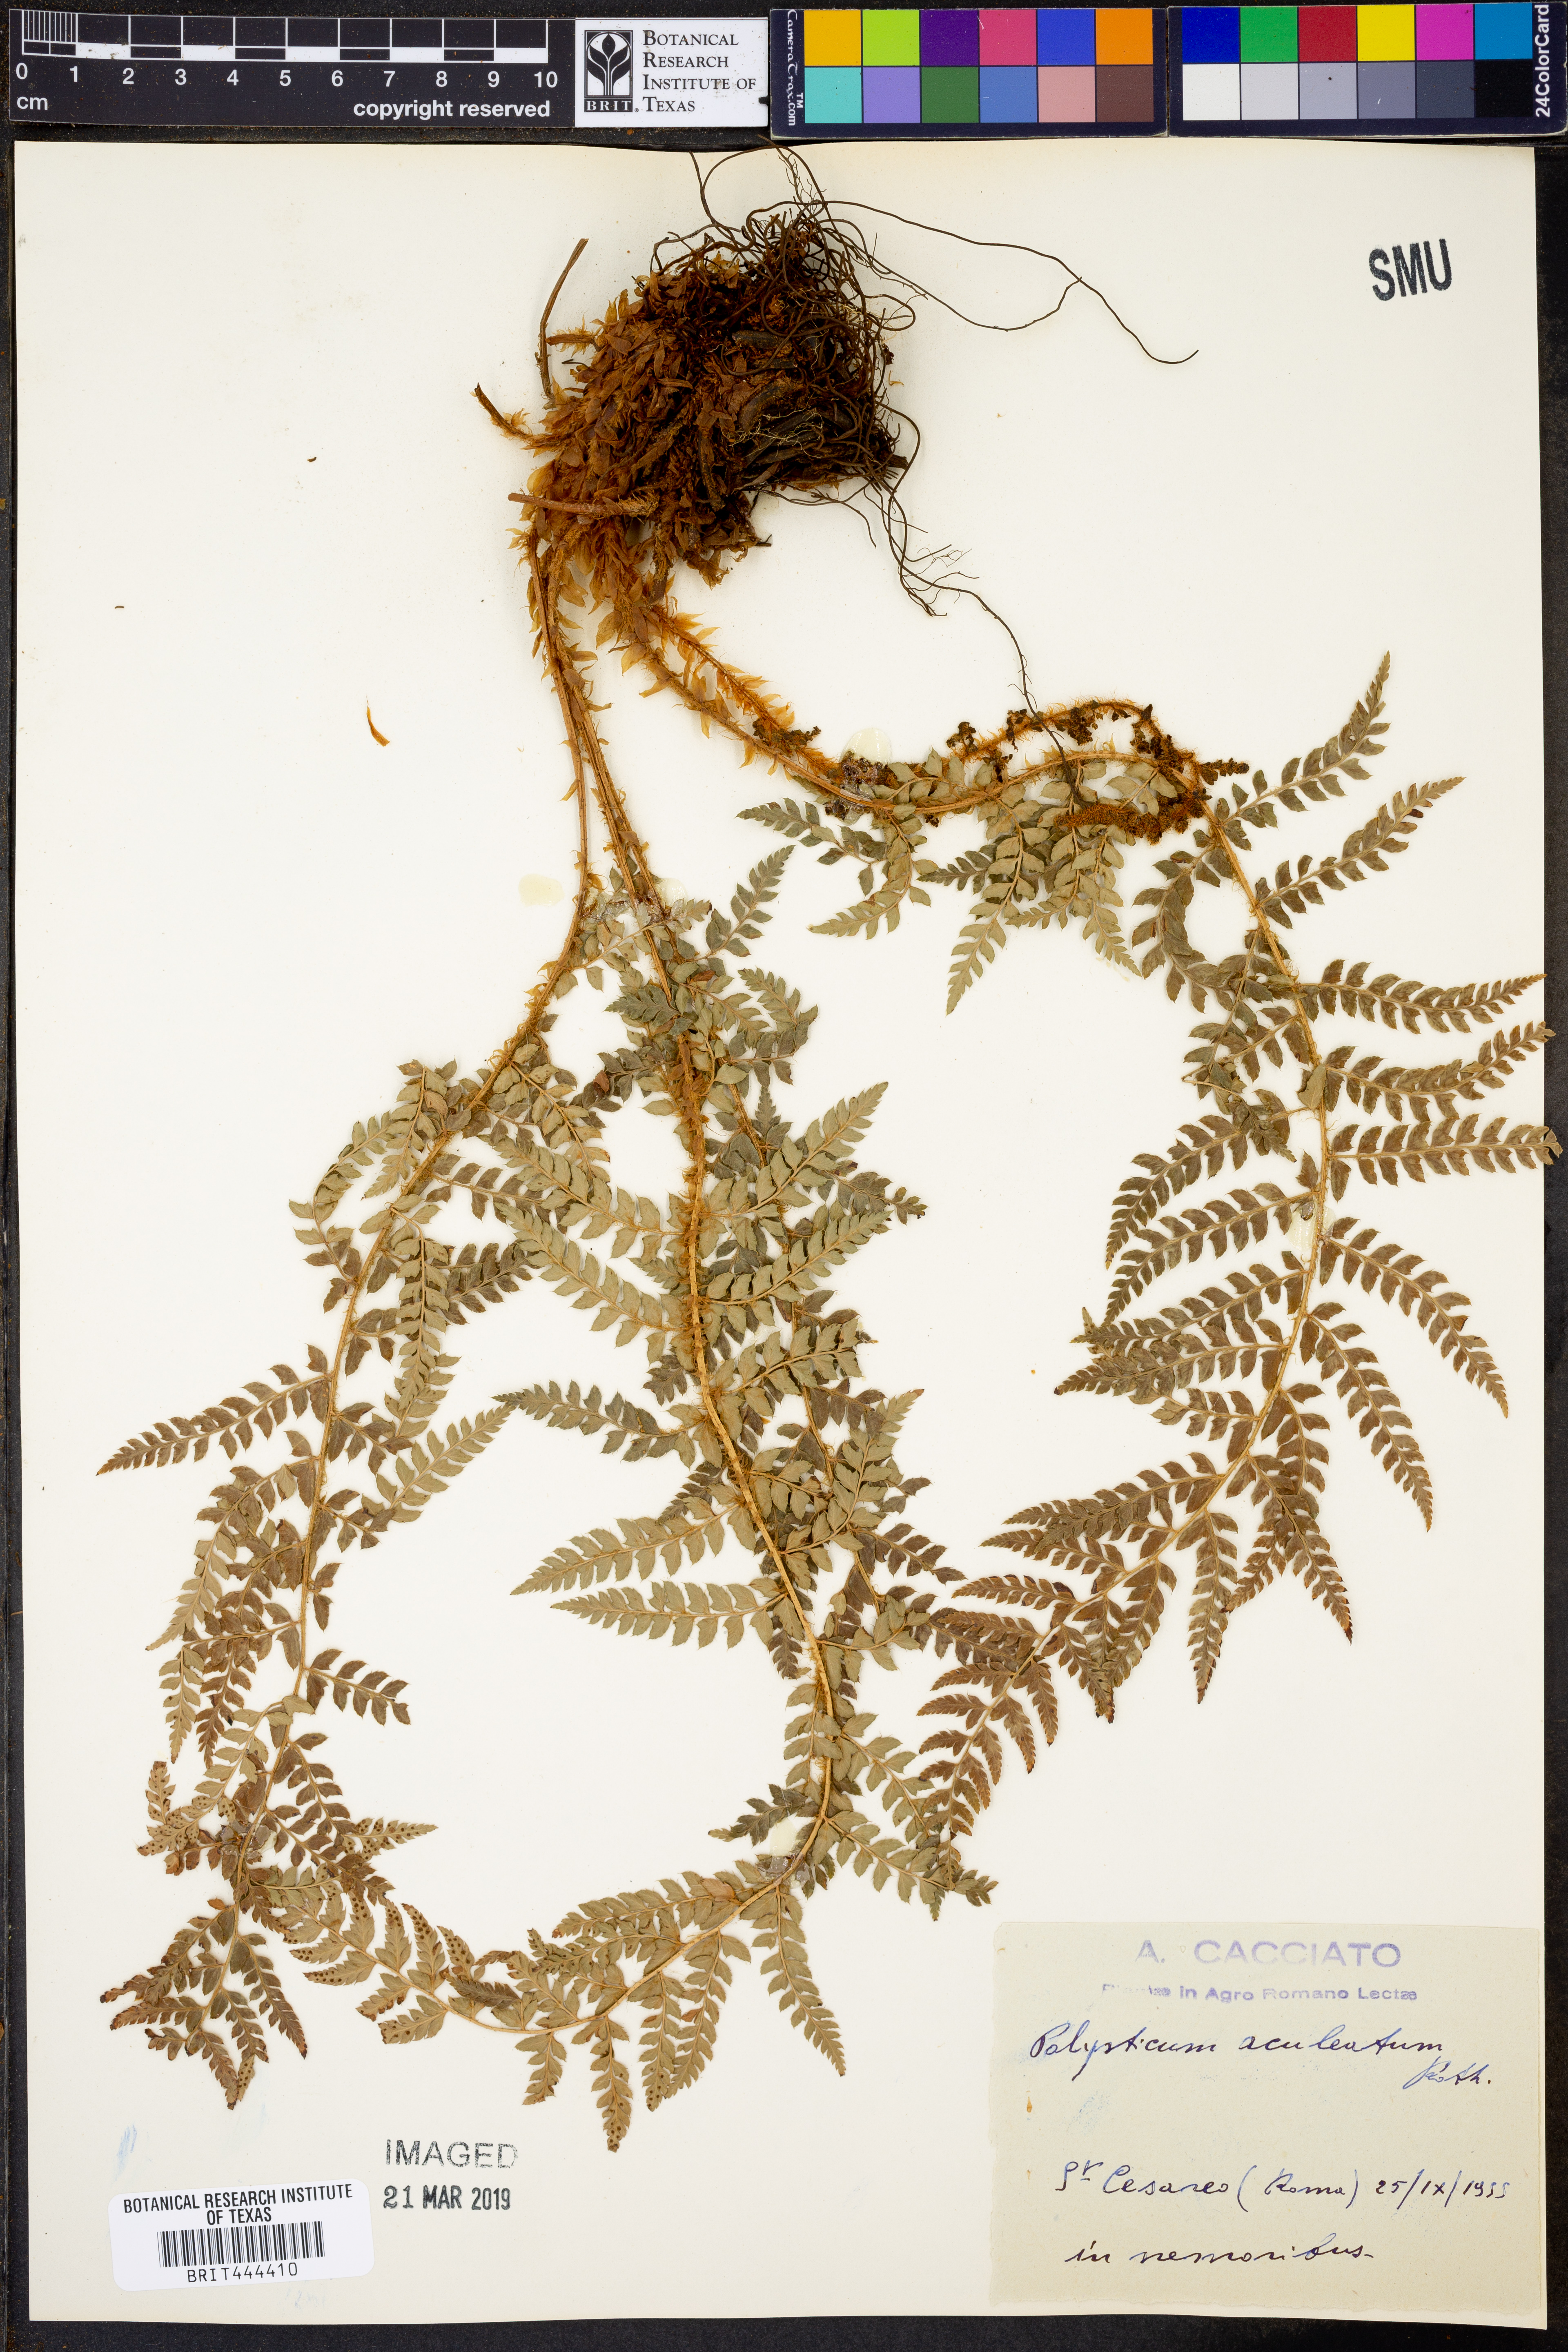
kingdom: Plantae
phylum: Tracheophyta
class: Polypodiopsida
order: Polypodiales
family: Dryopteridaceae
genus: Polystichum
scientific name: Polystichum aculeatum
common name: Hard shield-fern
